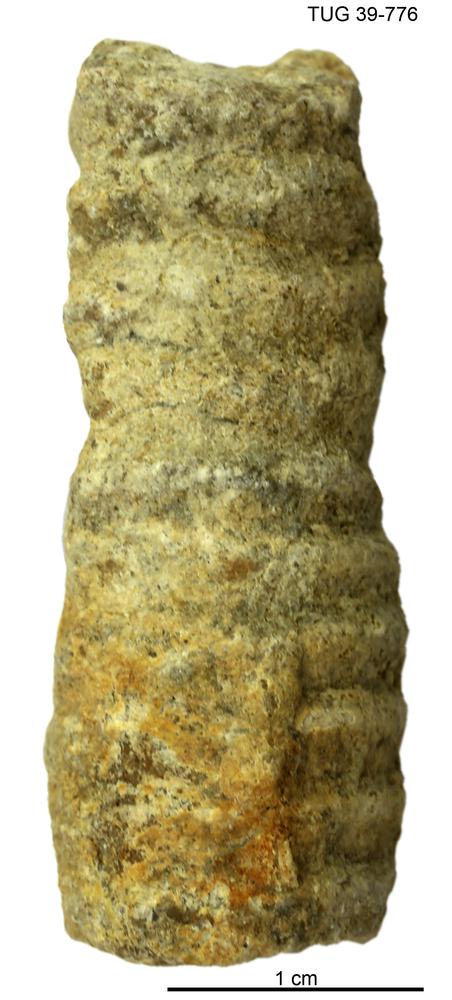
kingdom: Animalia
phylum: Mollusca
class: Cephalopoda
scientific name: Cephalopoda
